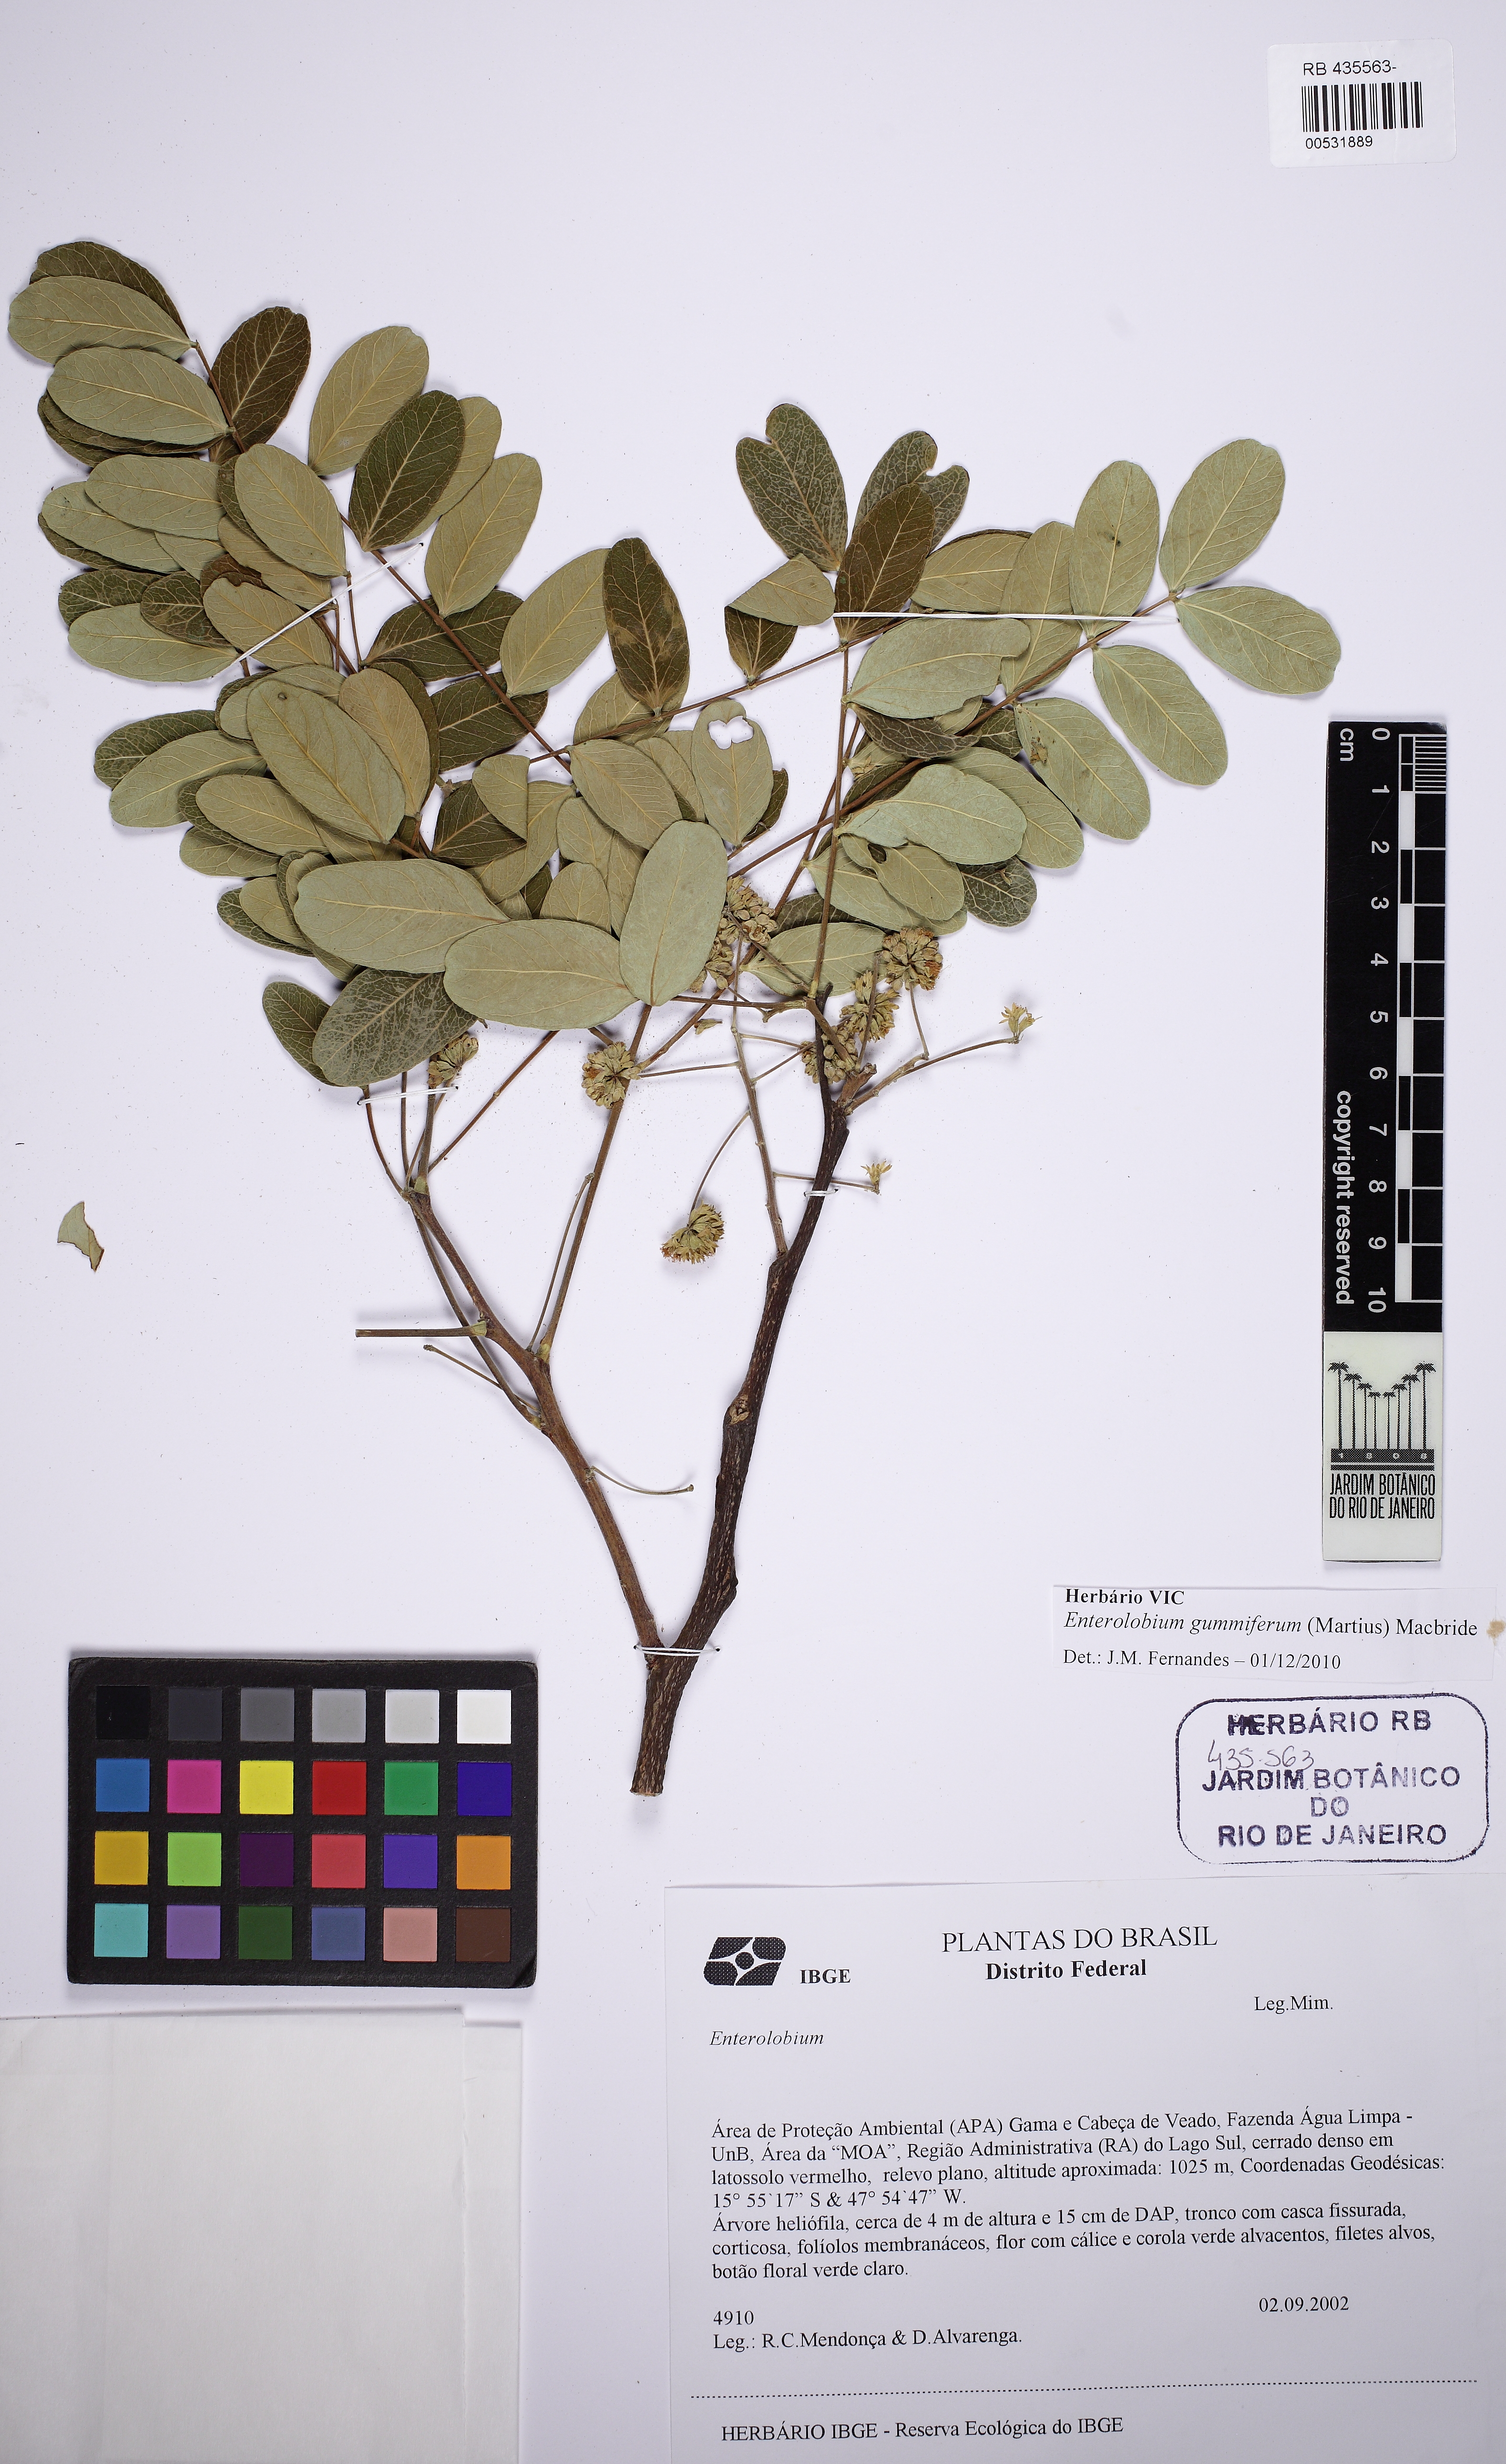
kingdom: Plantae
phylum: Tracheophyta
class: Magnoliopsida
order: Fabales
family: Fabaceae
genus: Enterolobium
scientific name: Enterolobium gummiferum
